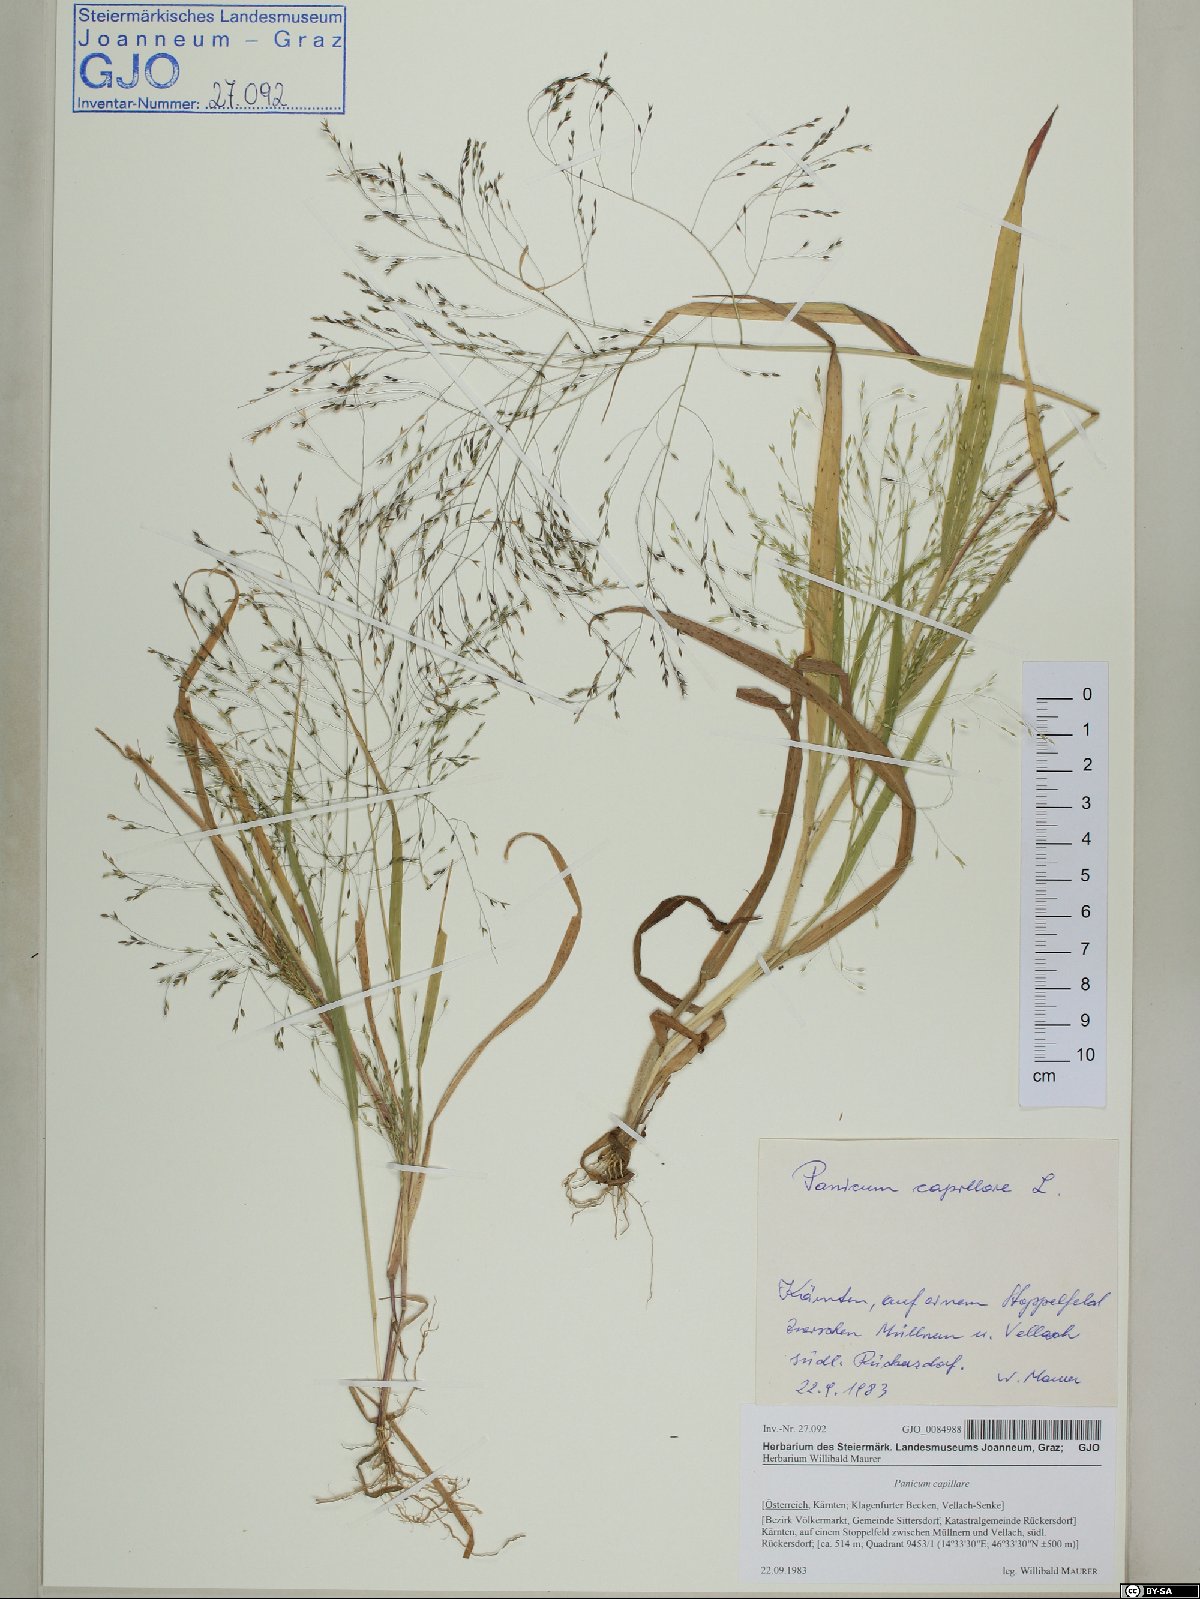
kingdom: Plantae
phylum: Tracheophyta
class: Liliopsida
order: Poales
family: Poaceae
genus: Panicum
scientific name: Panicum capillare
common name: Witch-grass
